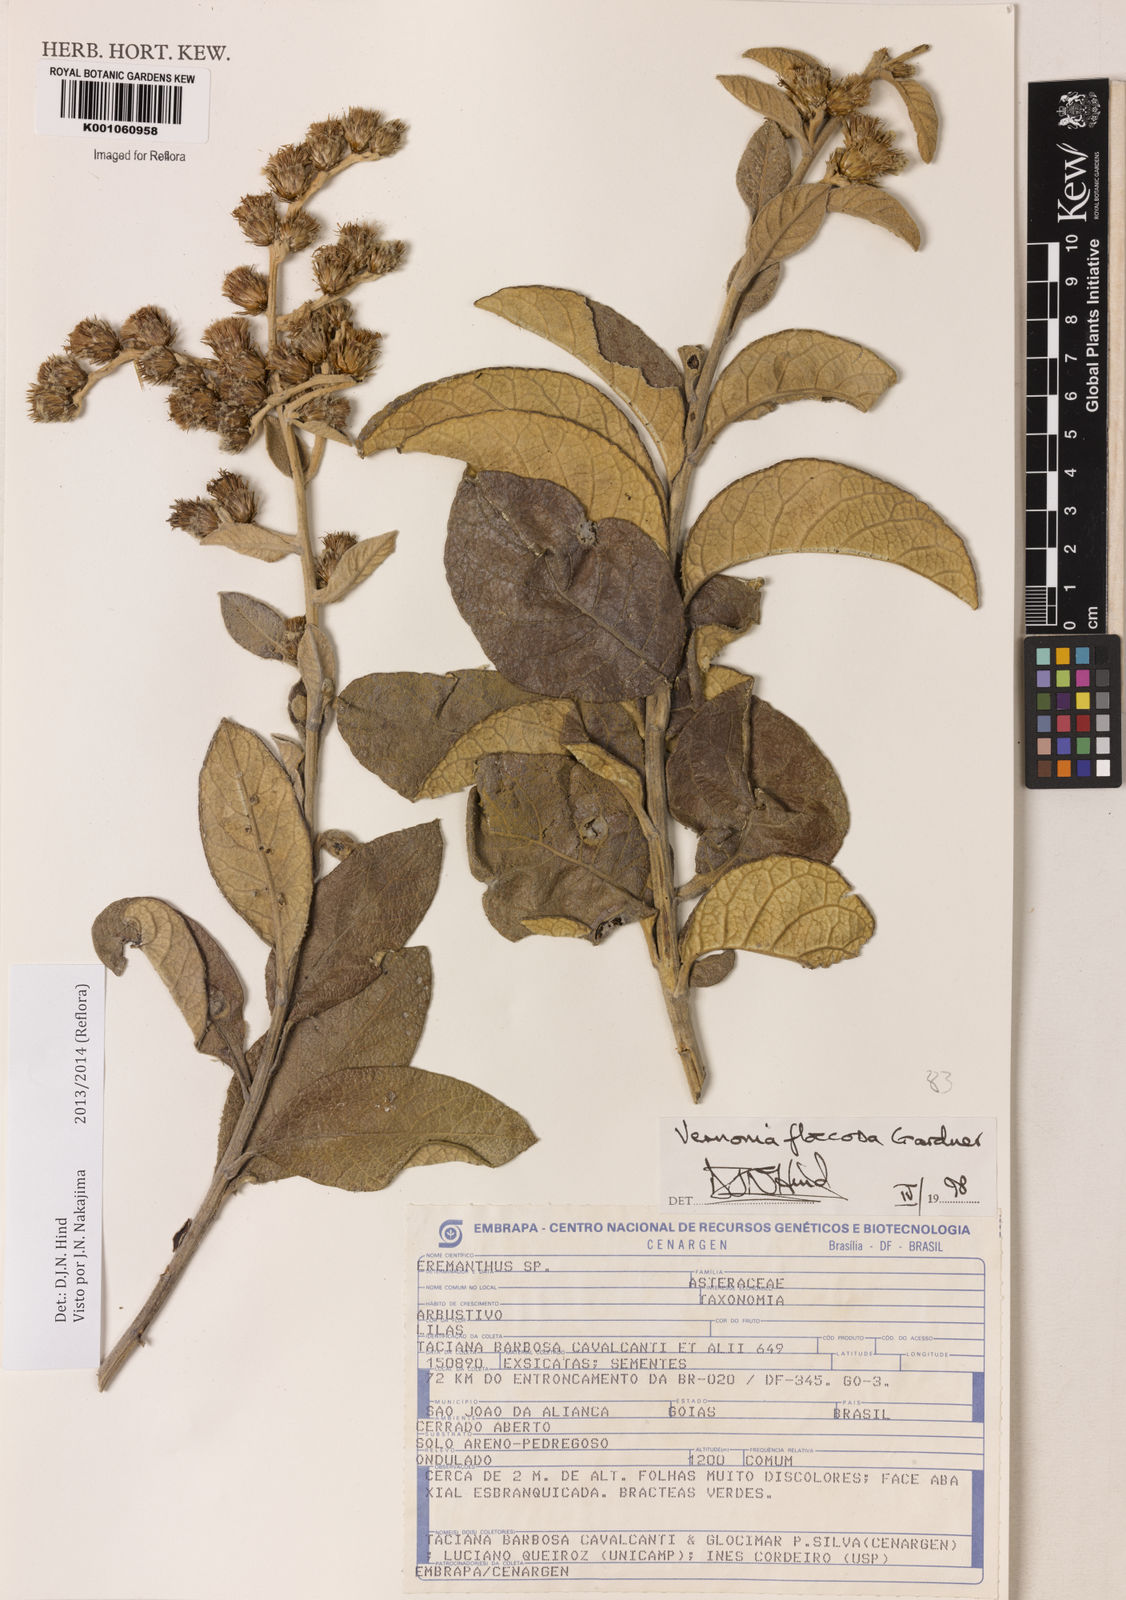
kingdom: Plantae
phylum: Tracheophyta
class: Magnoliopsida
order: Asterales
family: Asteraceae
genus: Lessingianthus
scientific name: Lessingianthus floccosus
